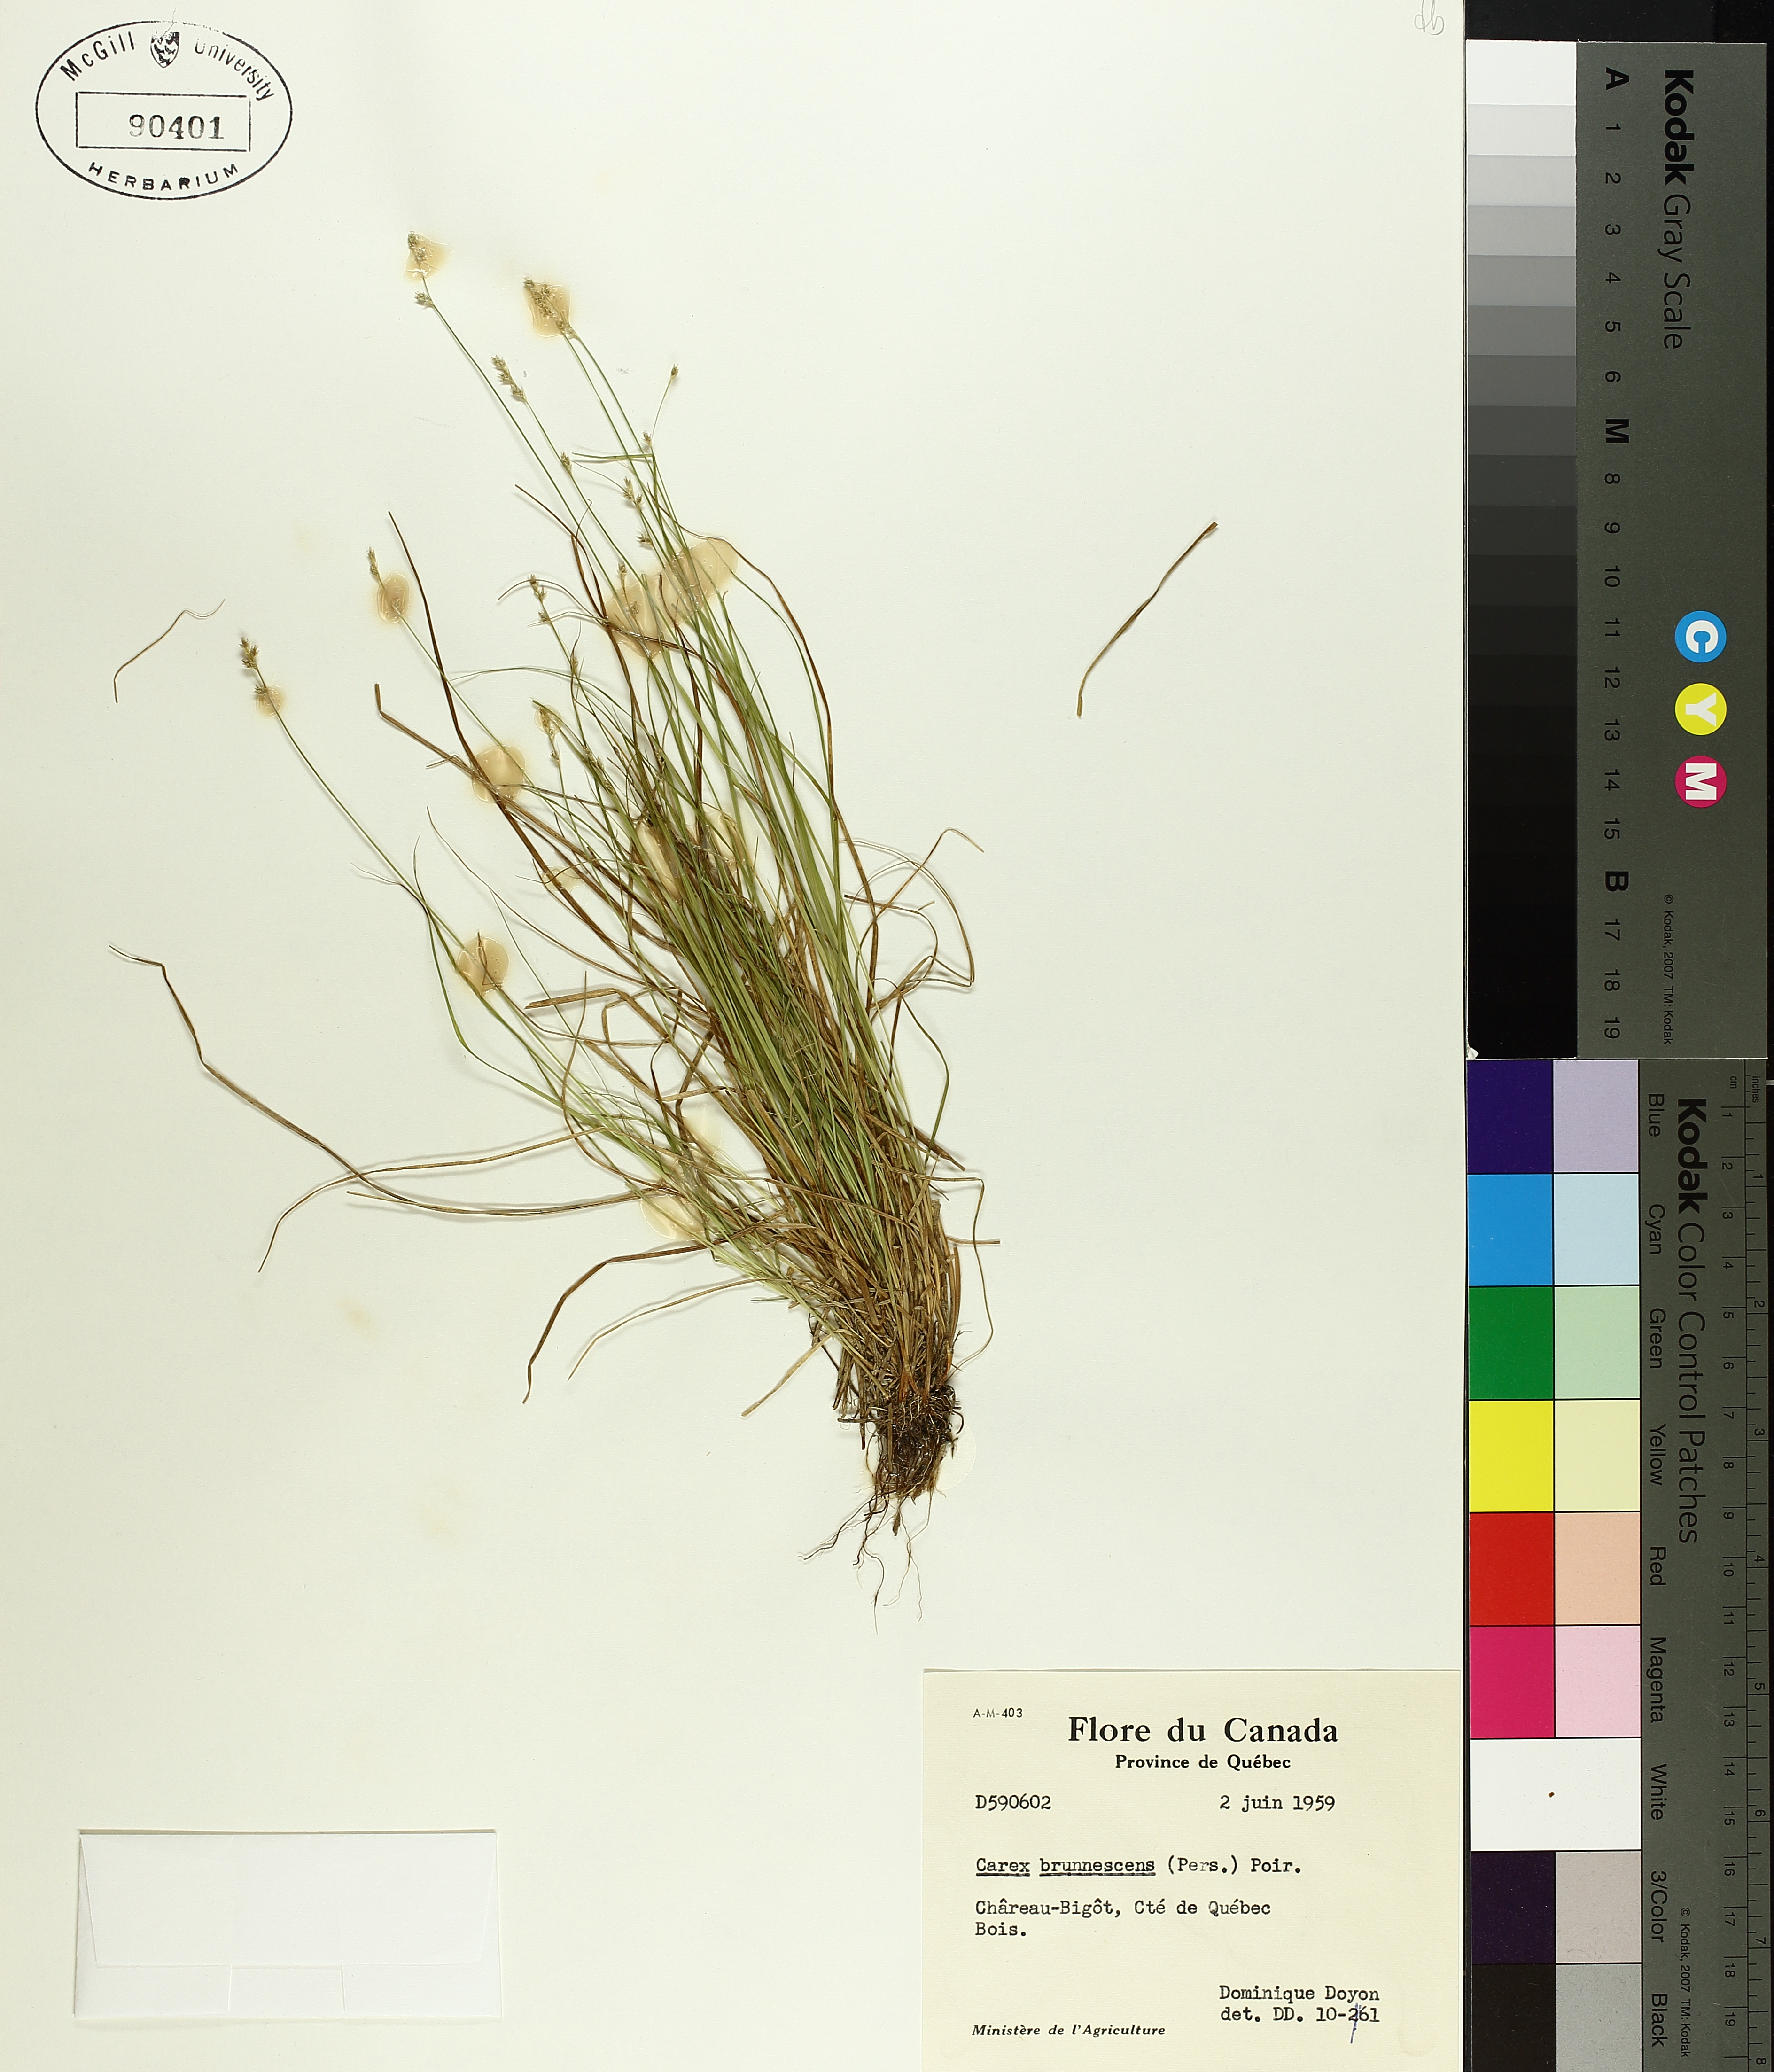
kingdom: Plantae
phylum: Tracheophyta
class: Liliopsida
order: Poales
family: Cyperaceae
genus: Carex
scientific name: Carex brunnescens
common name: Brown sedge
